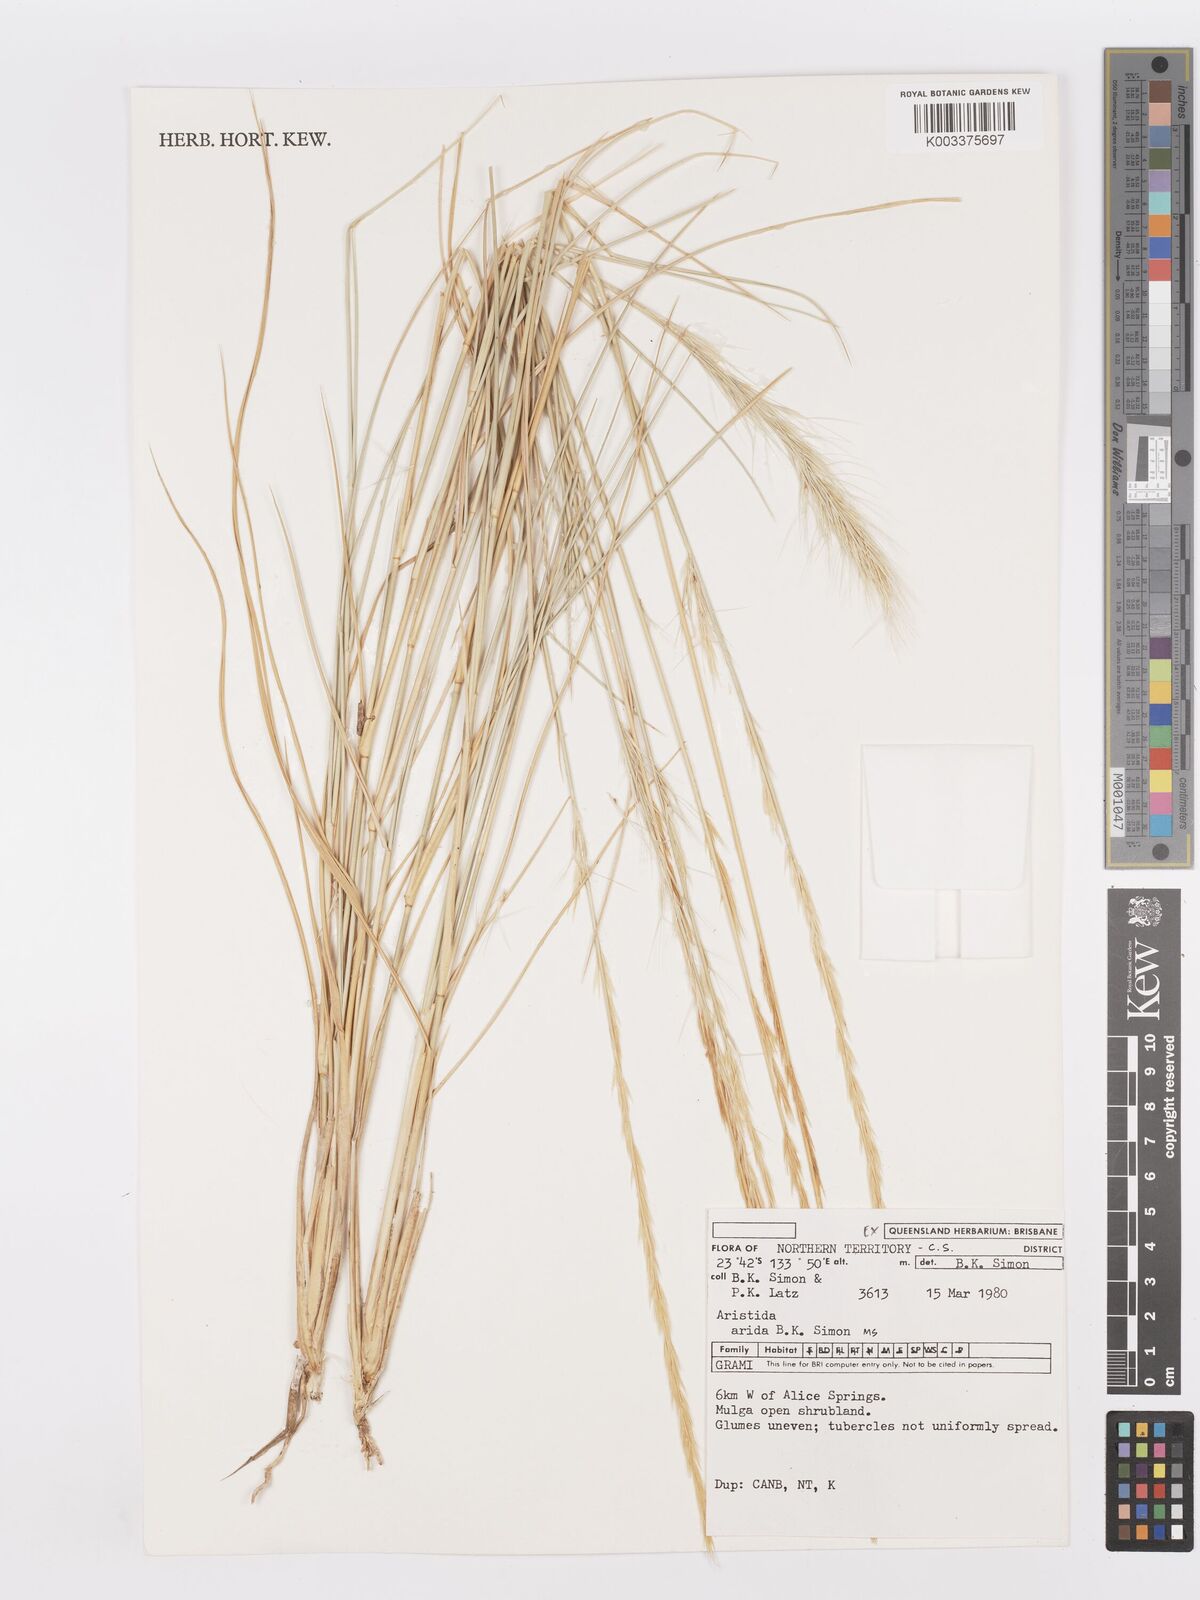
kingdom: Plantae
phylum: Tracheophyta
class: Liliopsida
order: Poales
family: Poaceae
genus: Aristida
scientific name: Aristida arida
